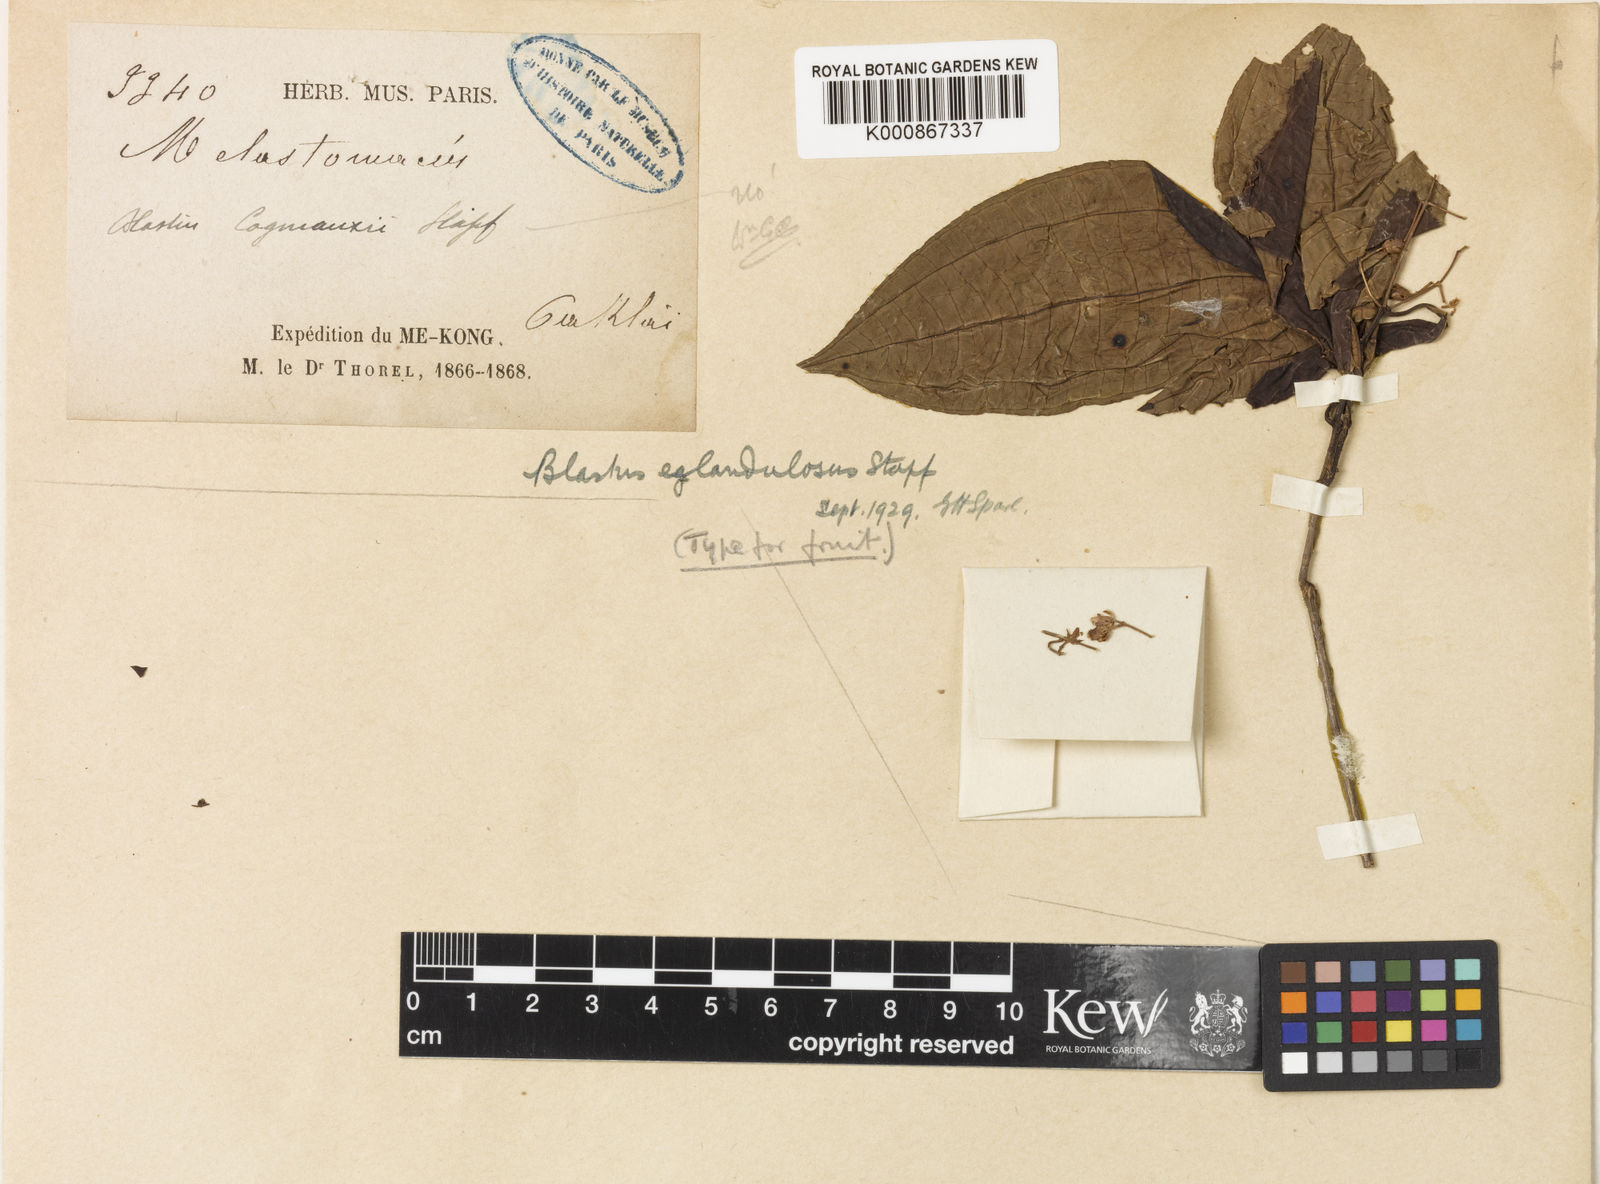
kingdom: Plantae
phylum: Tracheophyta
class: Magnoliopsida
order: Myrtales
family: Melastomataceae
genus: Blastus
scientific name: Blastus eglandulosus
